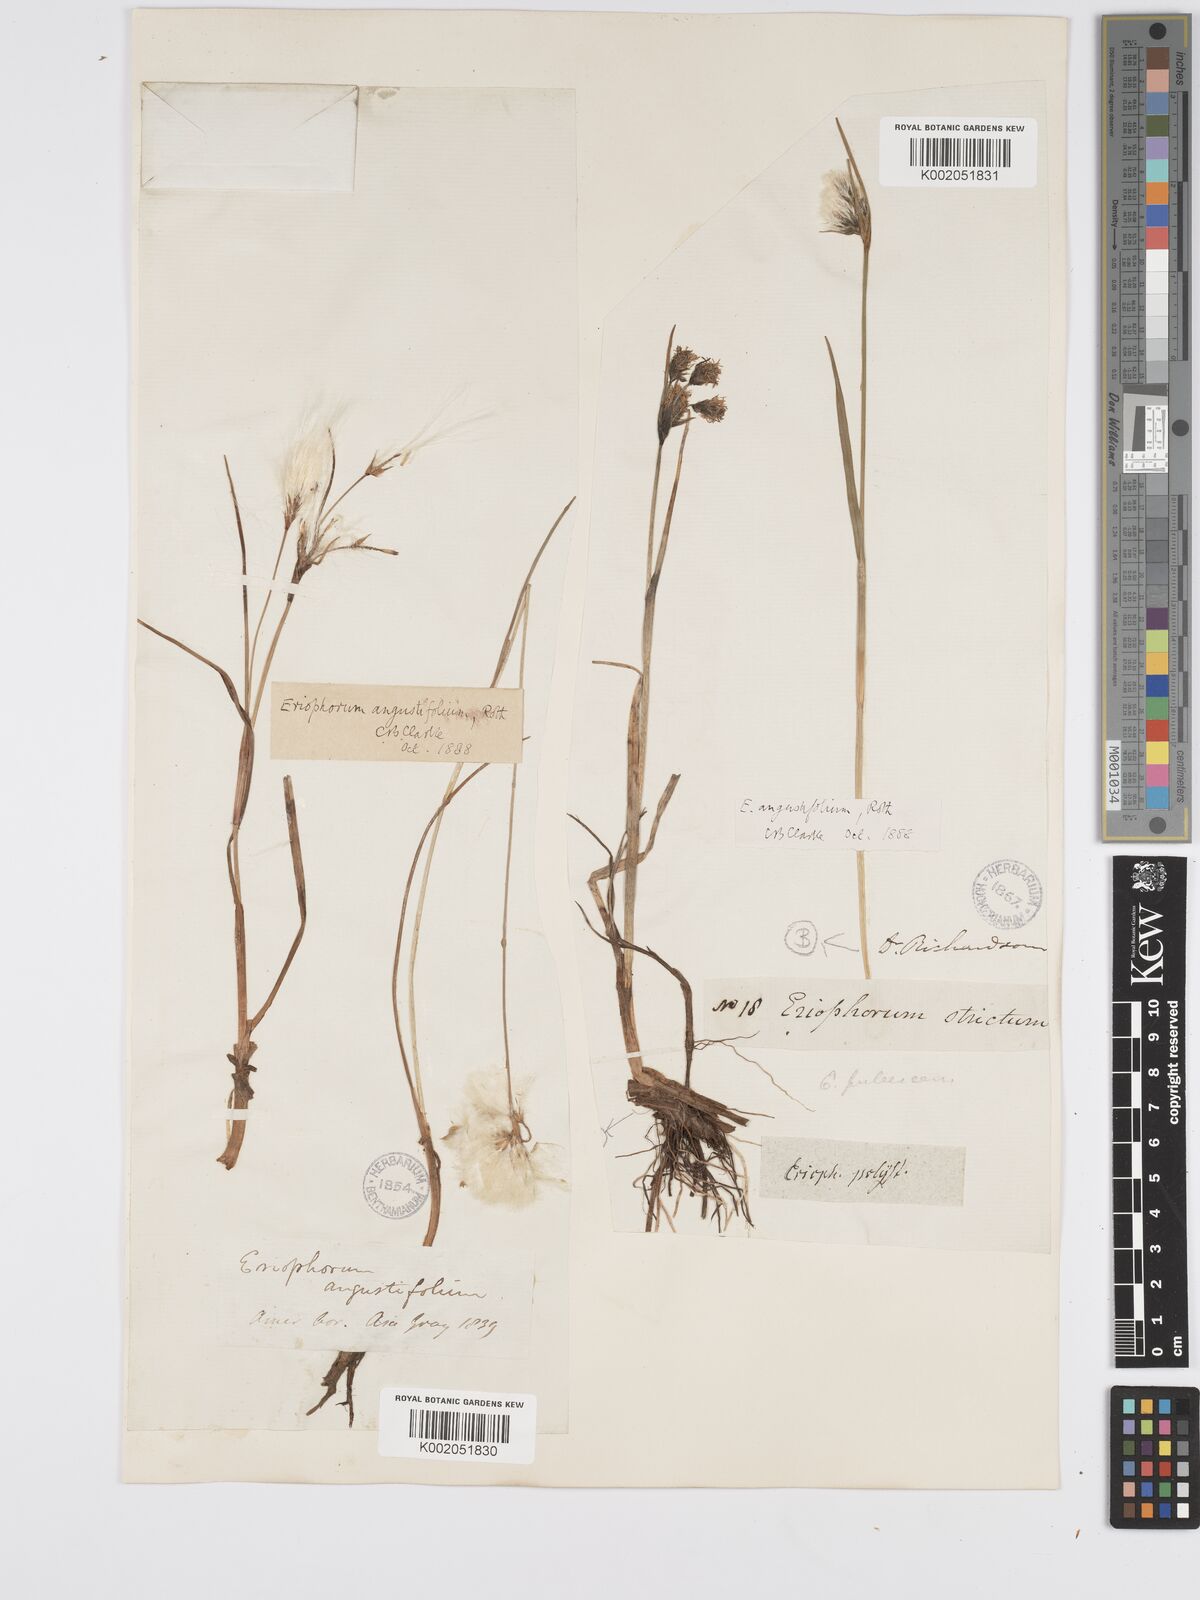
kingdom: Plantae
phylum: Tracheophyta
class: Liliopsida
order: Poales
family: Cyperaceae
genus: Eriophorum
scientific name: Eriophorum angustifolium
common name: Common cottongrass
